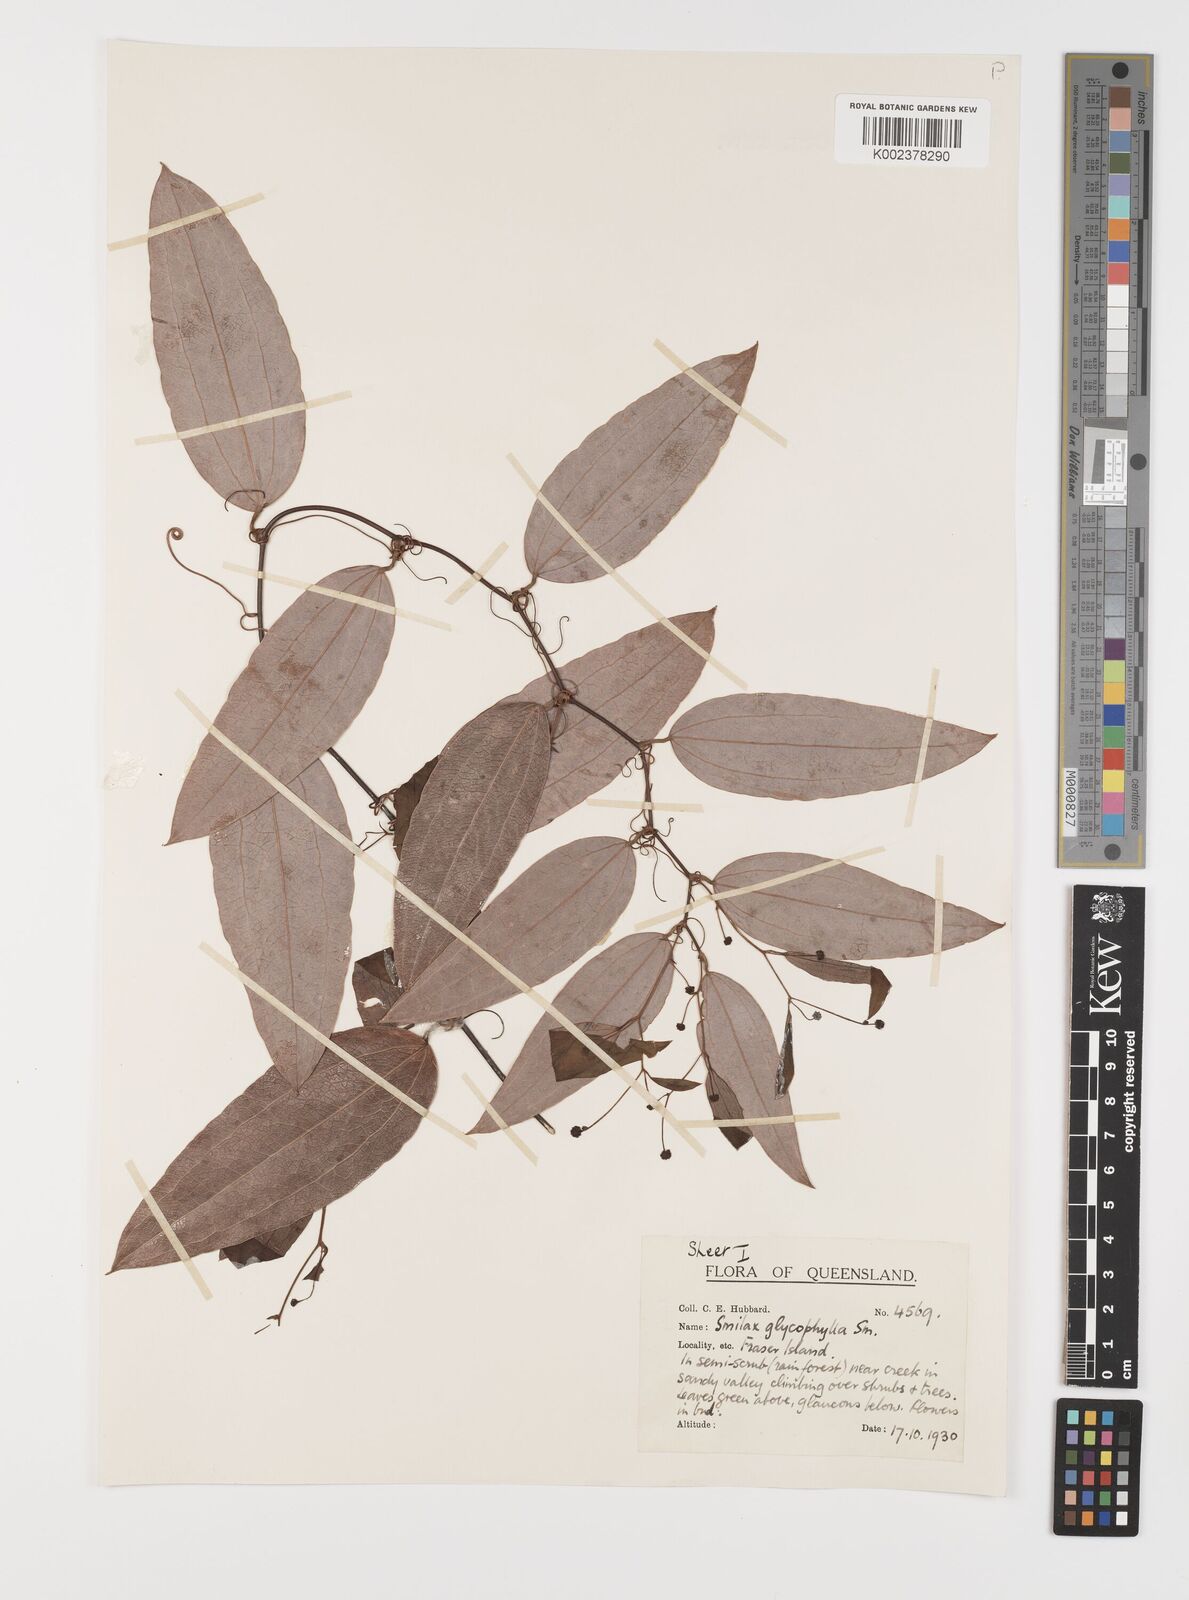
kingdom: Plantae
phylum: Tracheophyta
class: Liliopsida
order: Liliales
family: Smilacaceae
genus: Smilax
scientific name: Smilax leucophylla
